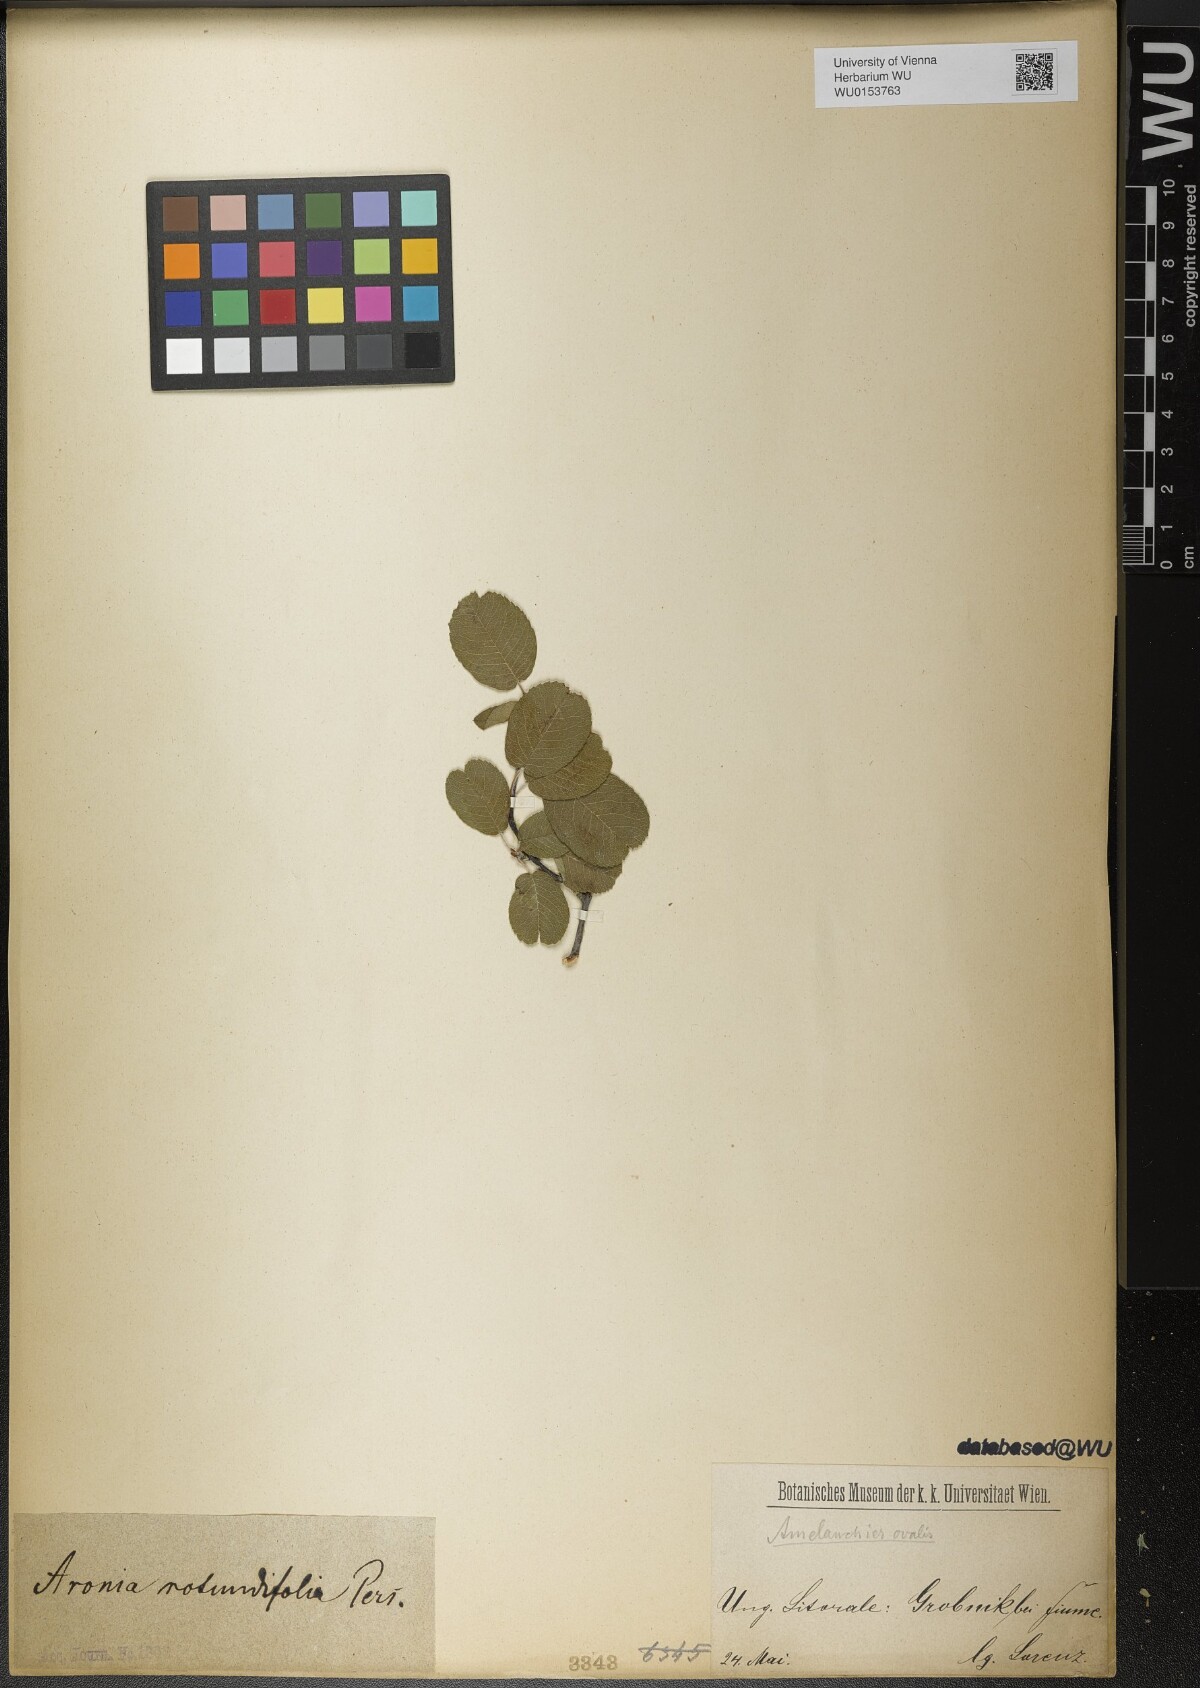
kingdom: Plantae
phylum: Tracheophyta
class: Magnoliopsida
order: Rosales
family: Rosaceae
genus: Amelanchier
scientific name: Amelanchier ovalis
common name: Serviceberry
